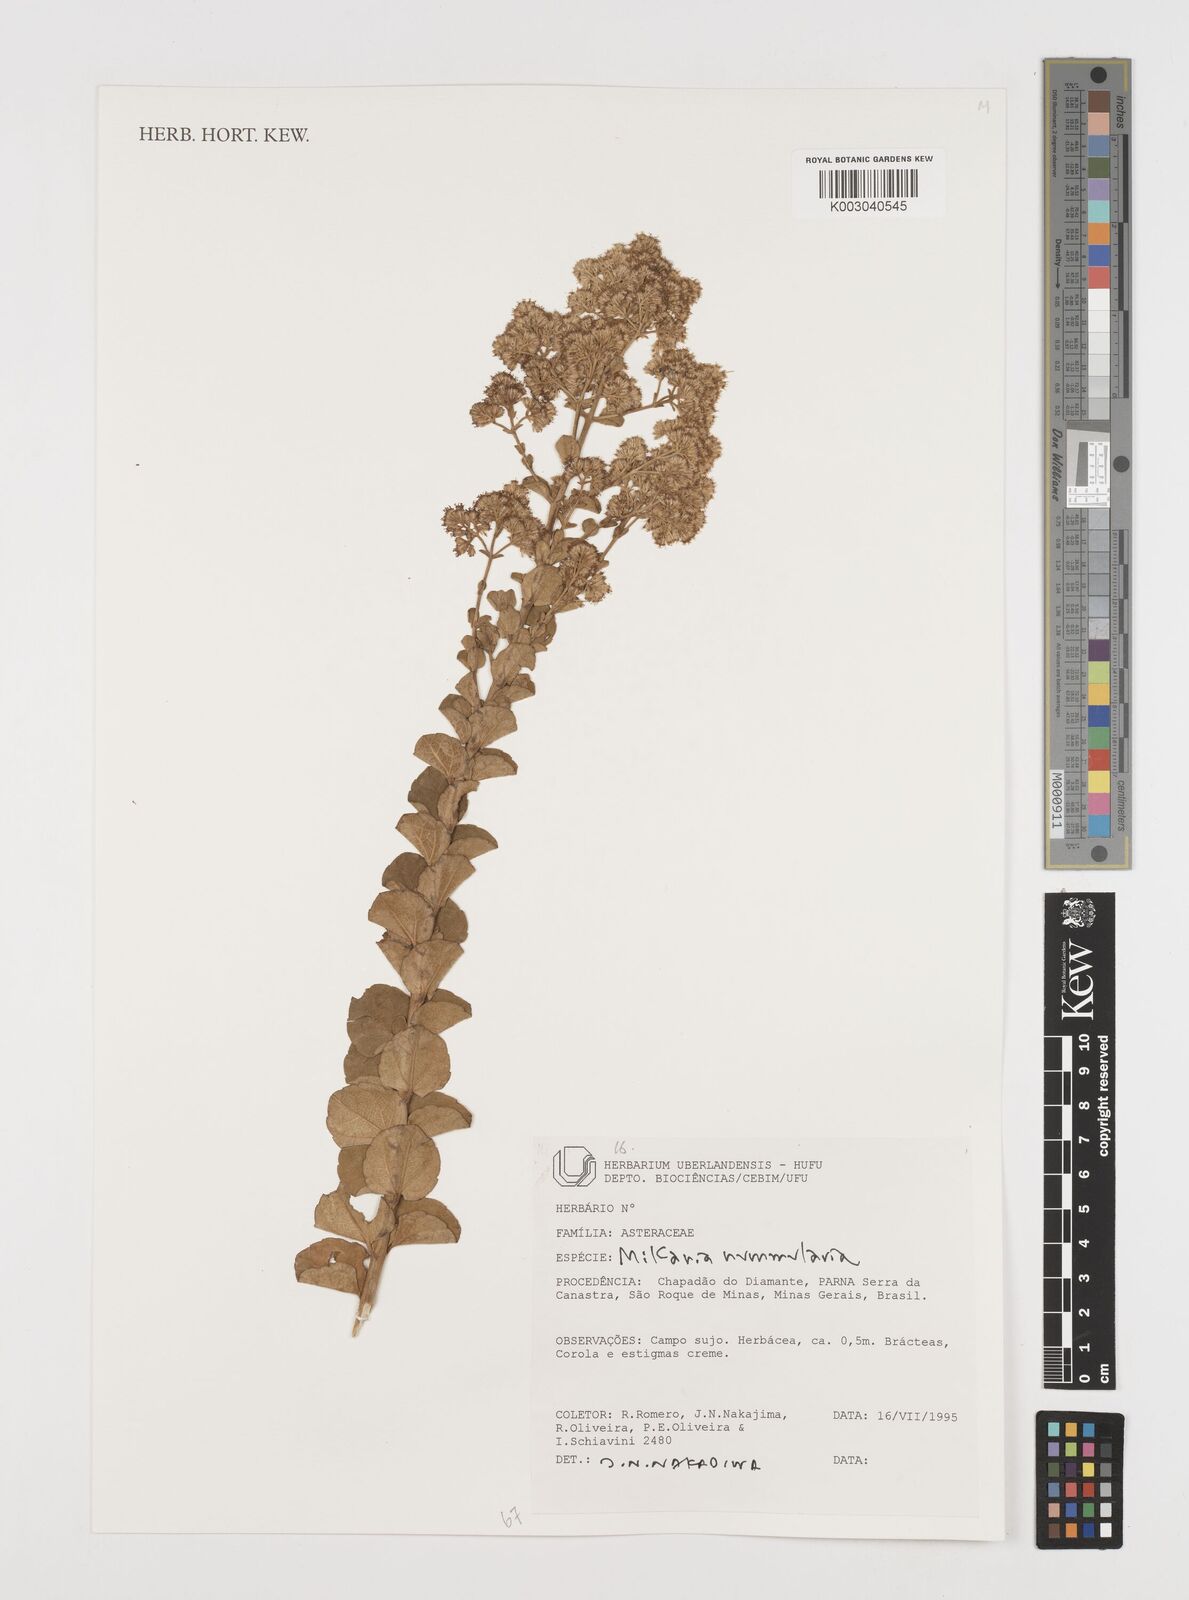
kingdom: Plantae
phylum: Tracheophyta
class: Magnoliopsida
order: Asterales
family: Asteraceae
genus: Mikania
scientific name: Mikania nummularia
